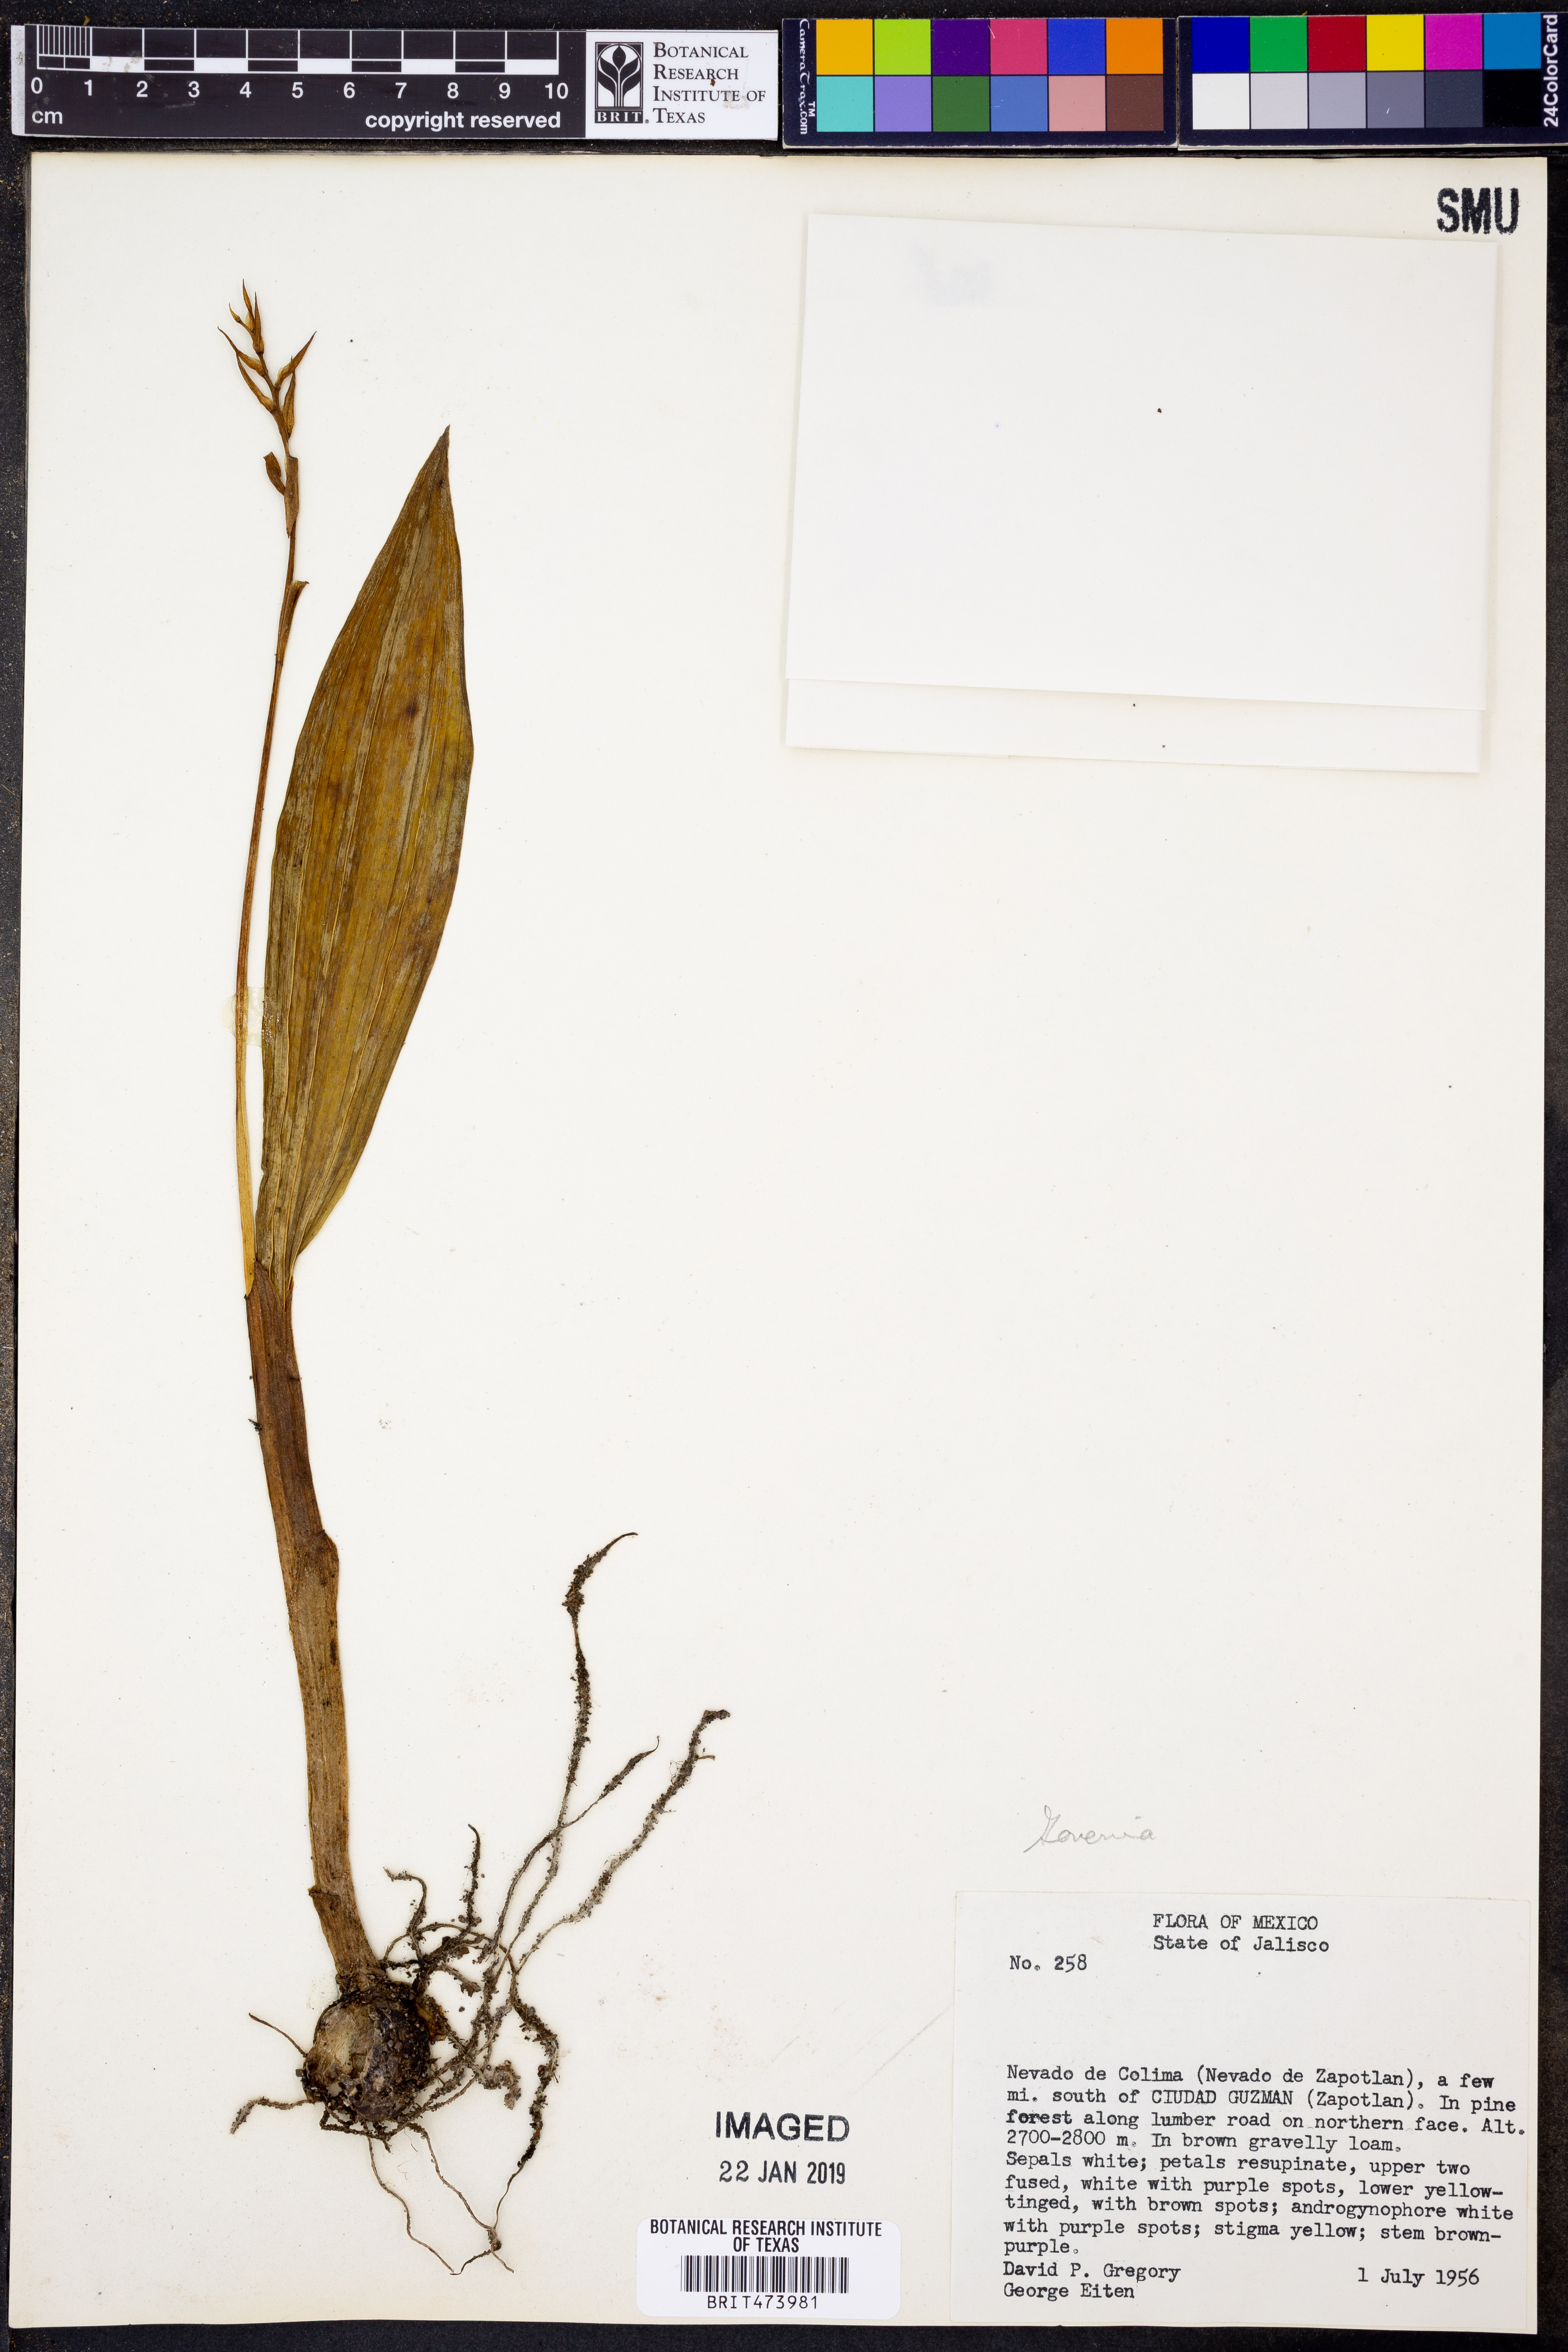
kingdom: Plantae
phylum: Tracheophyta
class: Liliopsida
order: Asparagales
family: Orchidaceae
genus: Govenia
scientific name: Govenia
